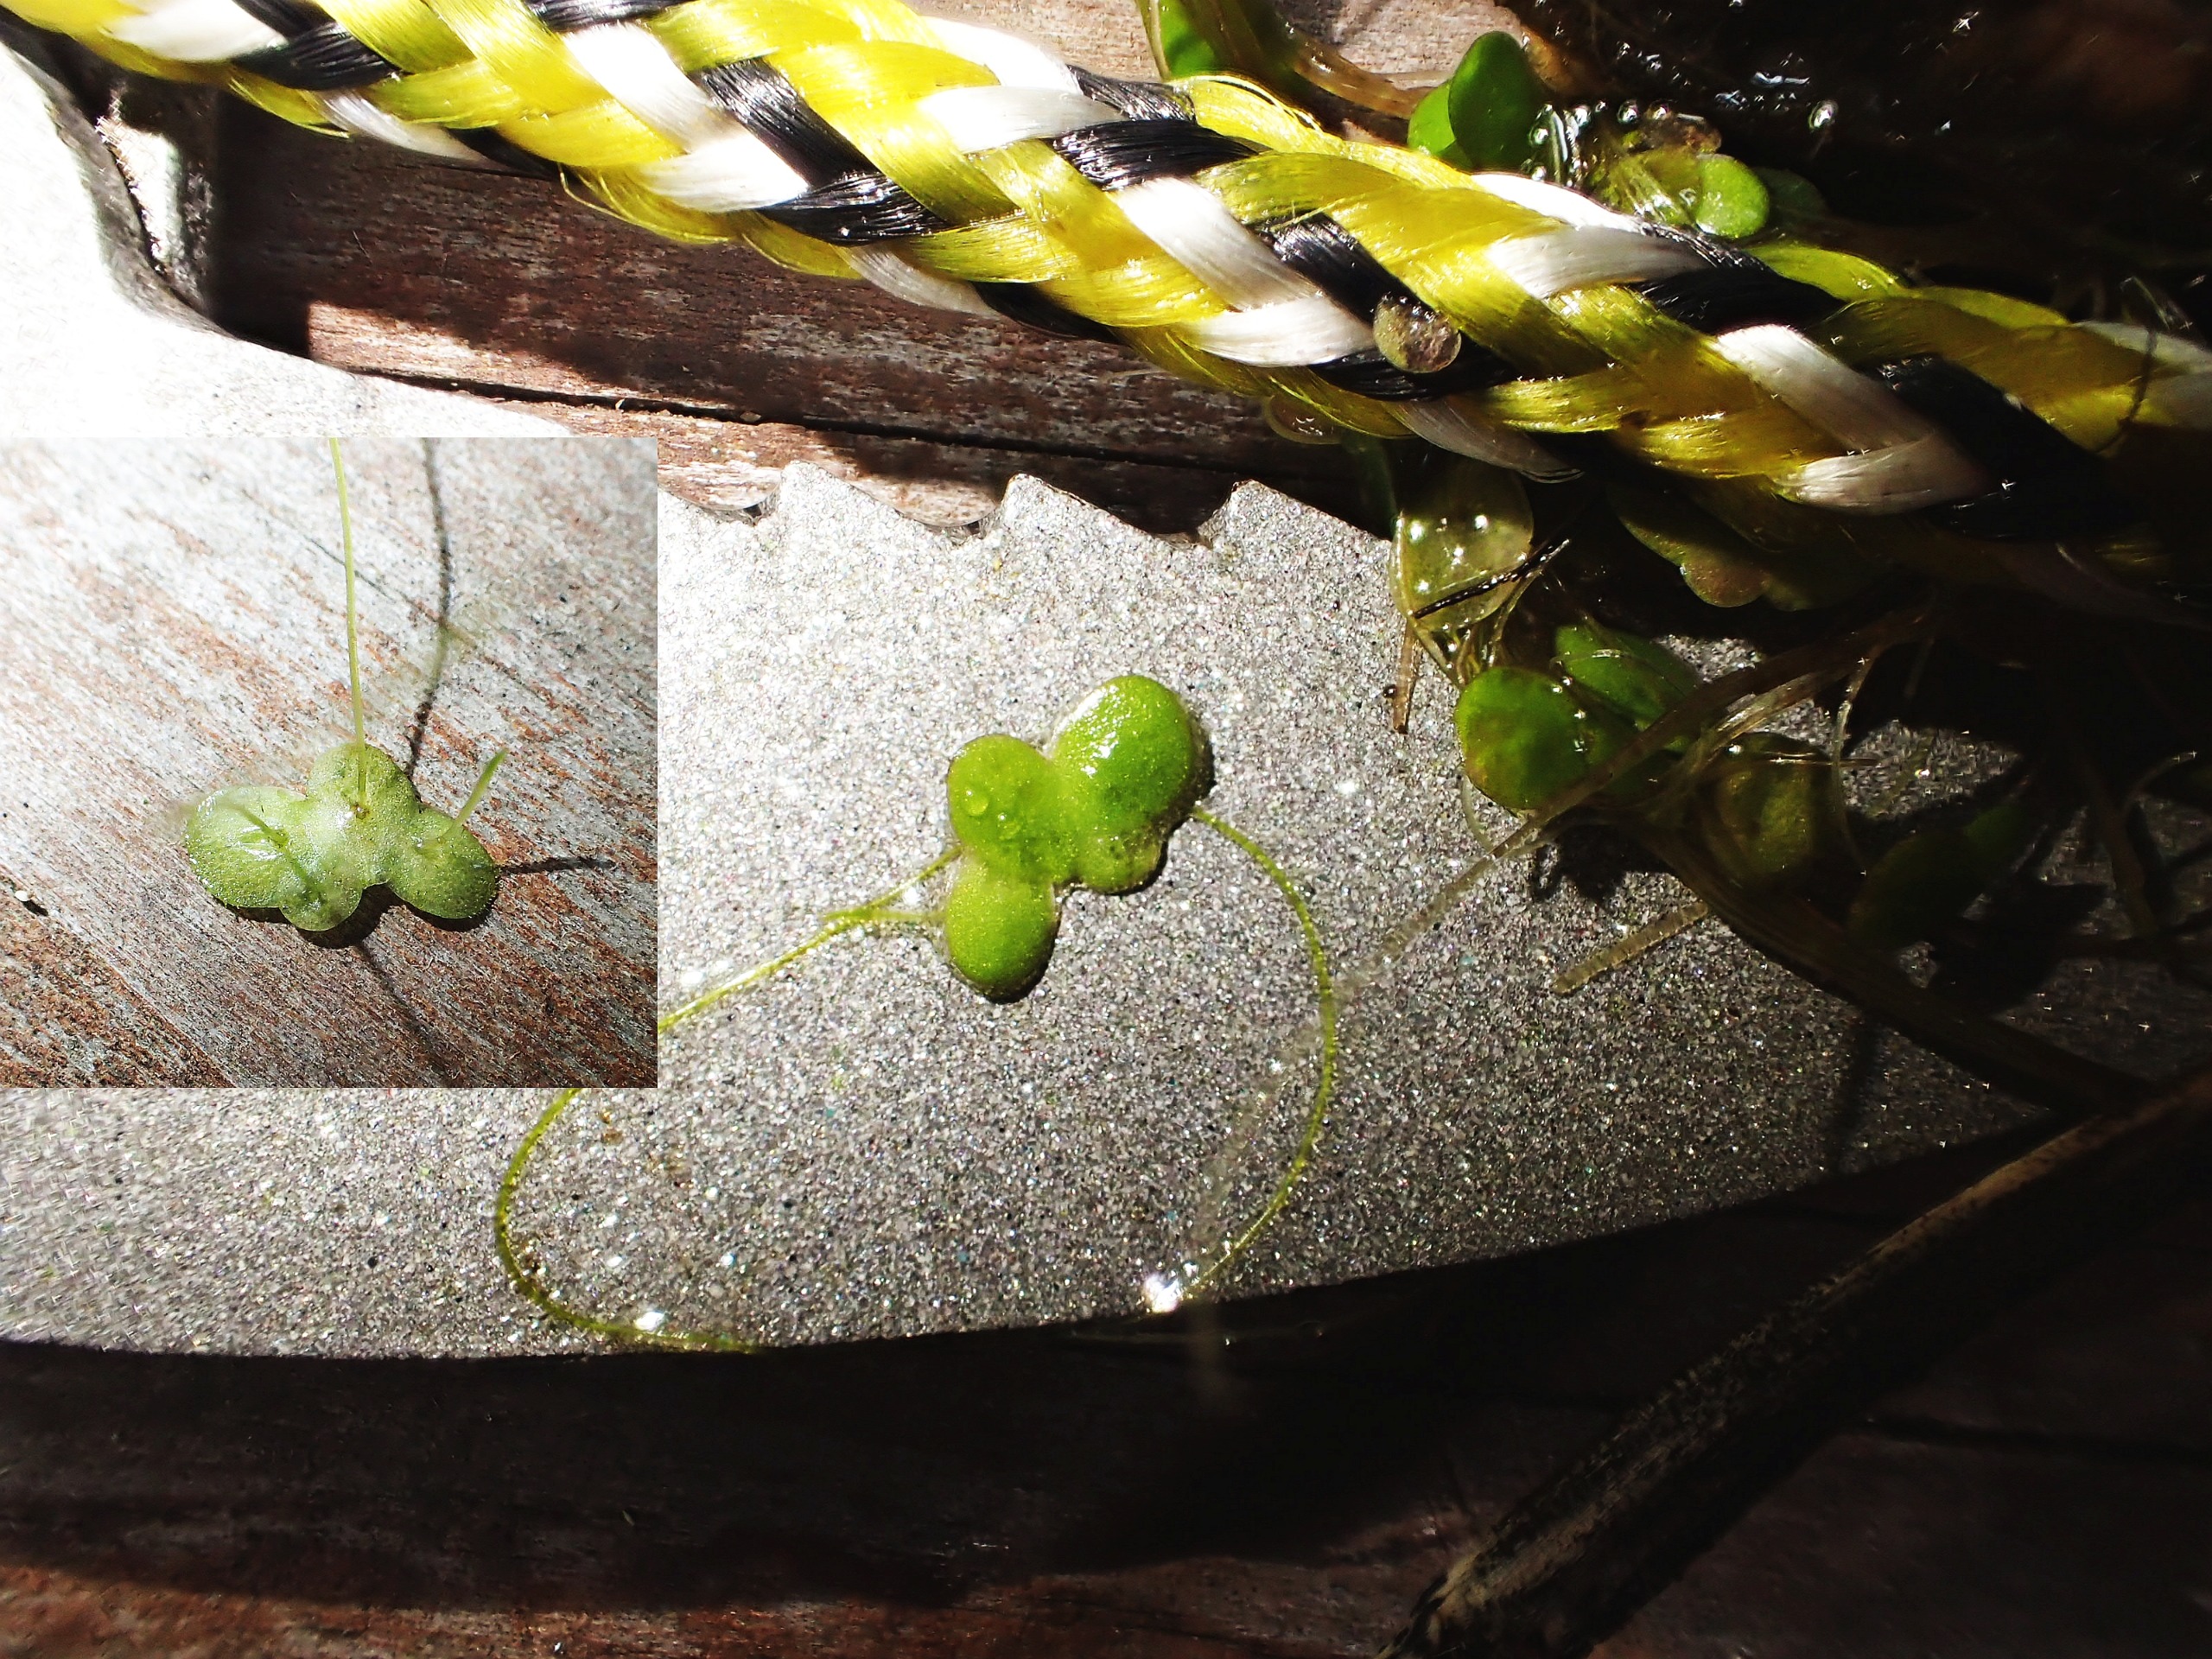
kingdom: Plantae
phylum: Tracheophyta
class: Liliopsida
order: Alismatales
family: Araceae
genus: Lemna
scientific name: Lemna minor
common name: Liden andemad
